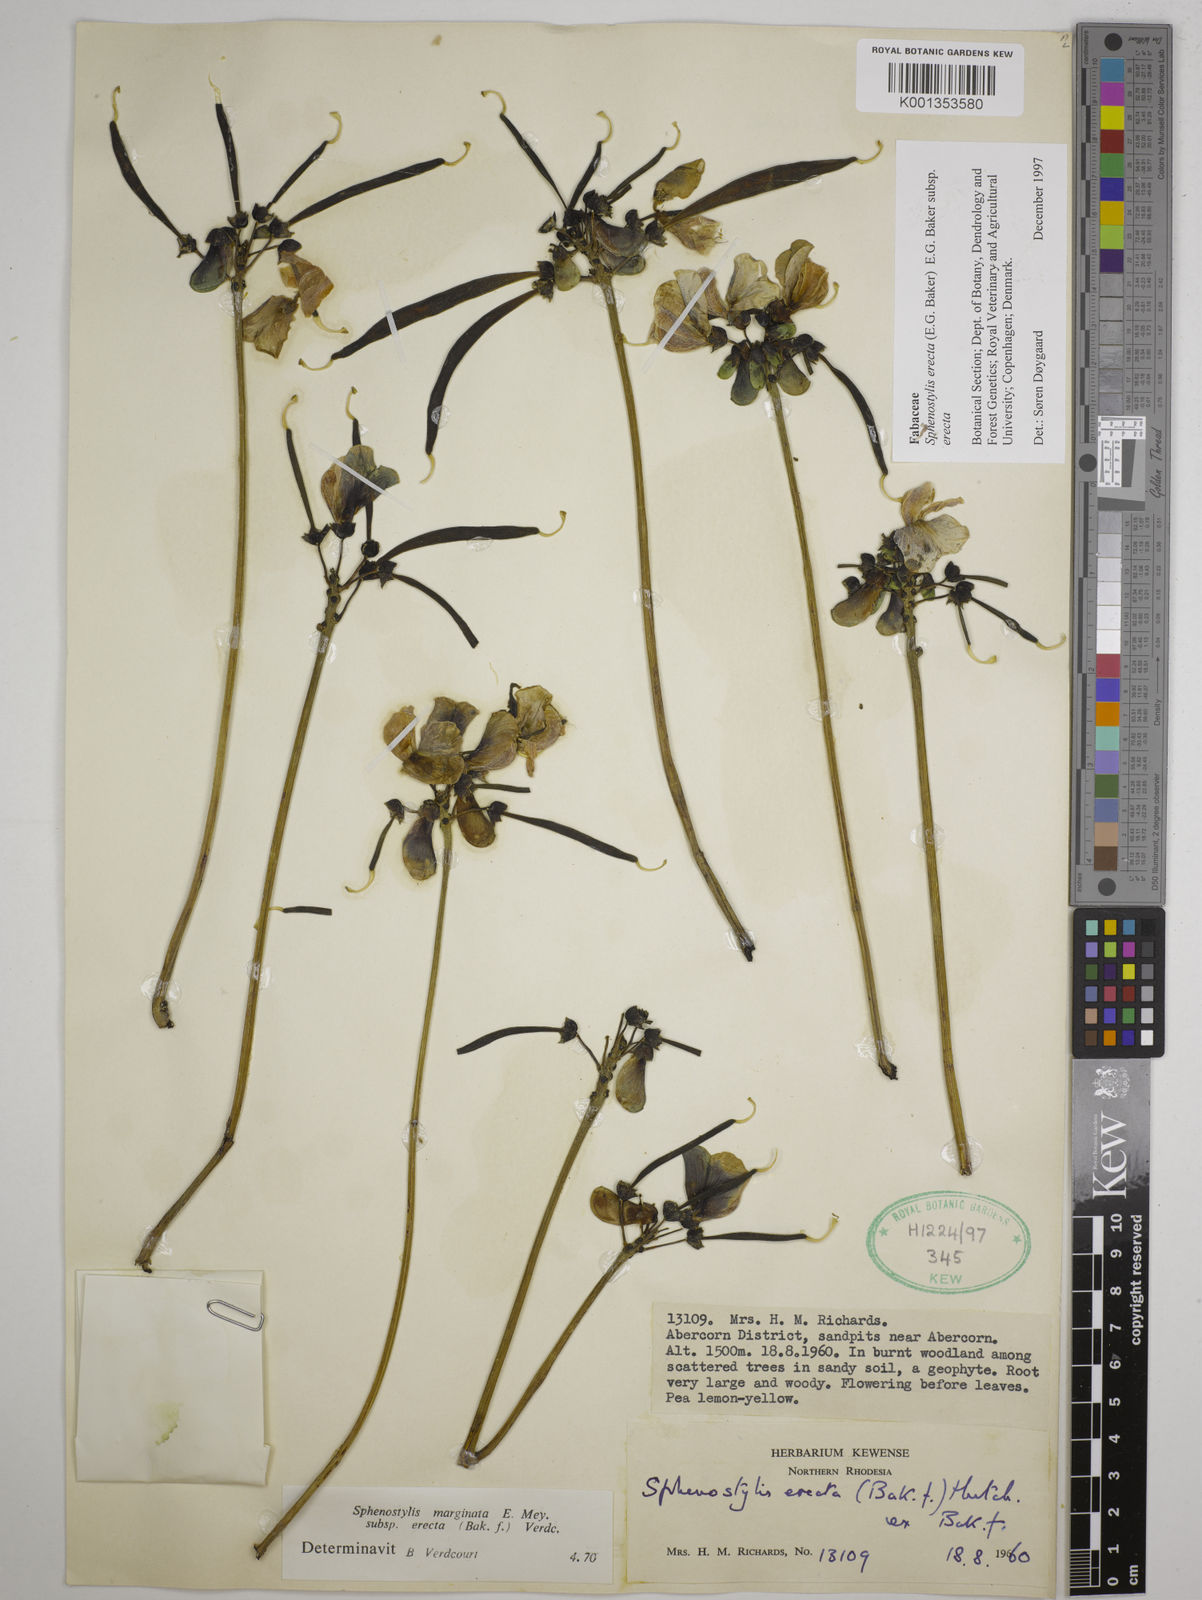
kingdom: Plantae
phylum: Tracheophyta
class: Magnoliopsida
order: Fabales
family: Fabaceae
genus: Sphenostylis
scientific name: Sphenostylis erecta
